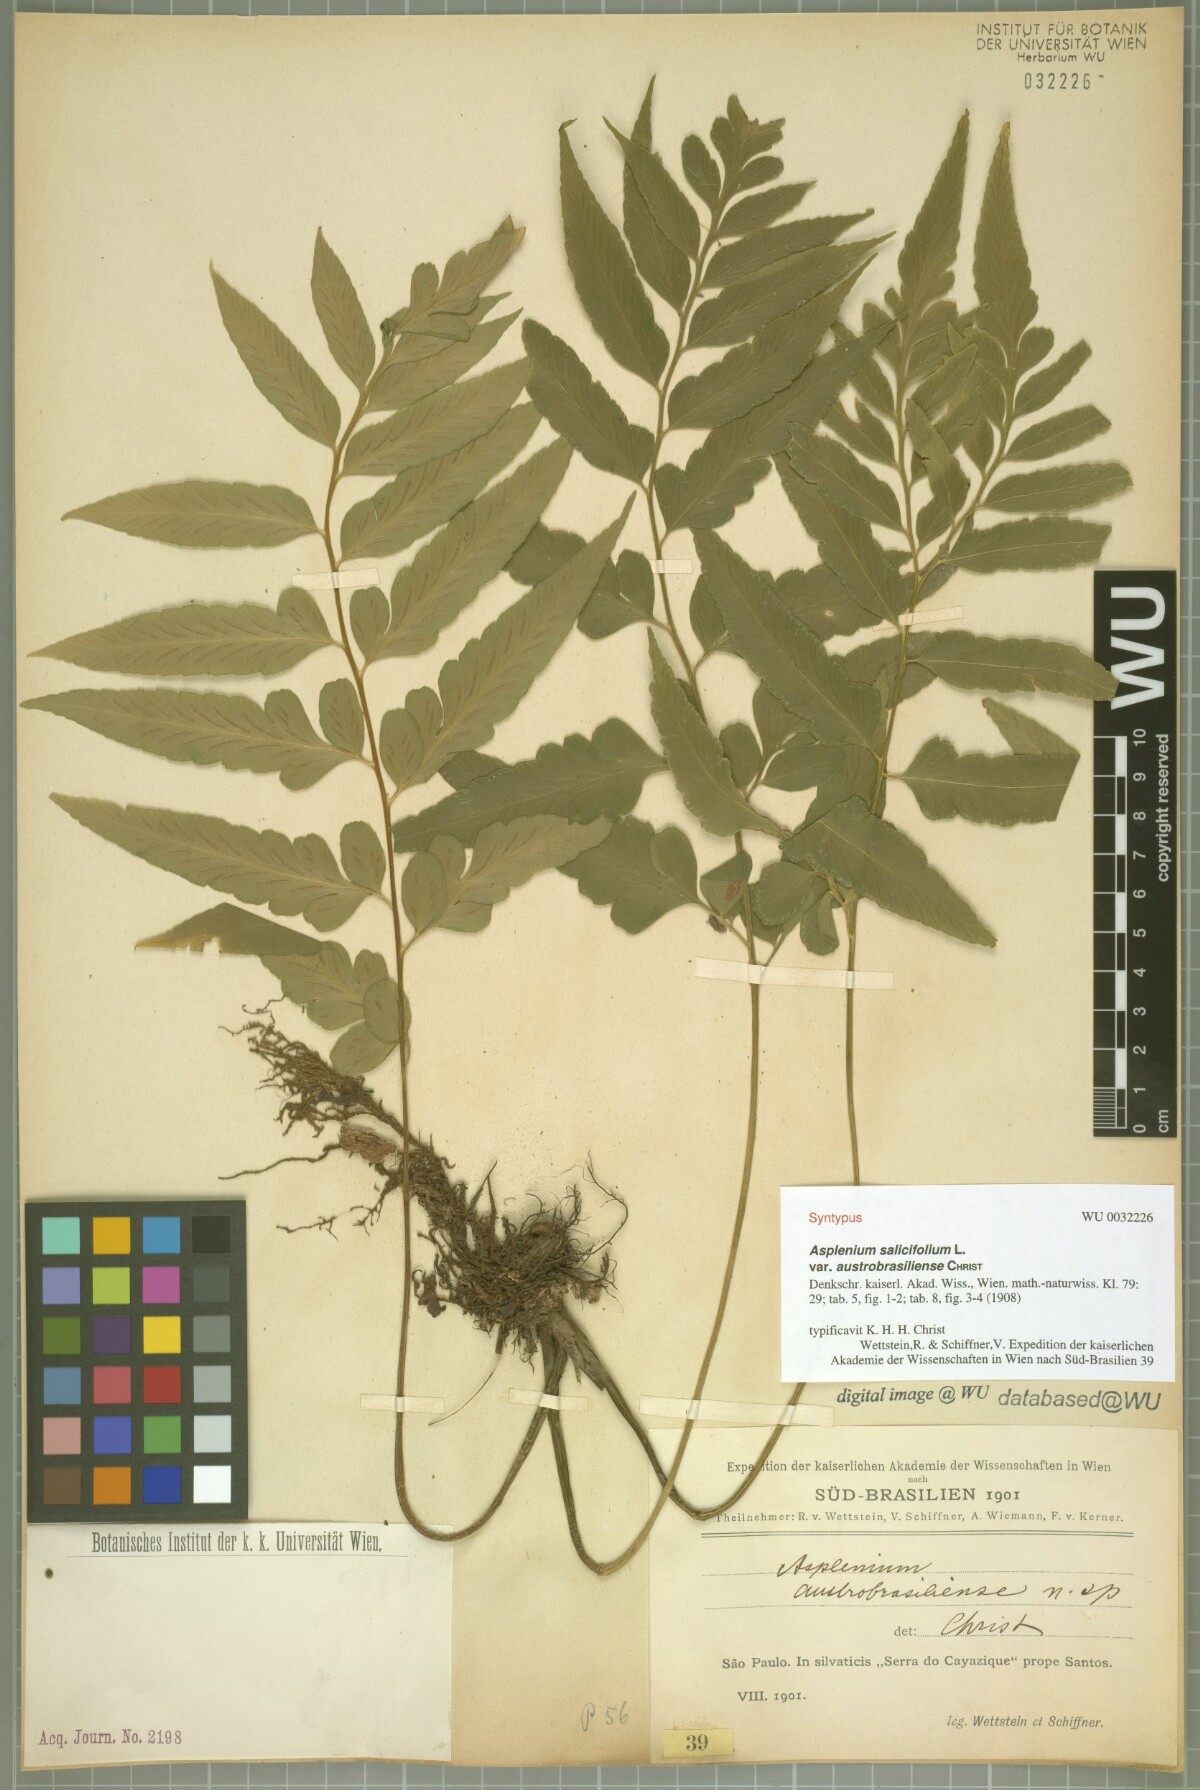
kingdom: Plantae
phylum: Tracheophyta
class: Polypodiopsida
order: Polypodiales
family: Aspleniaceae
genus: Asplenium
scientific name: Asplenium austrobrasiliense
